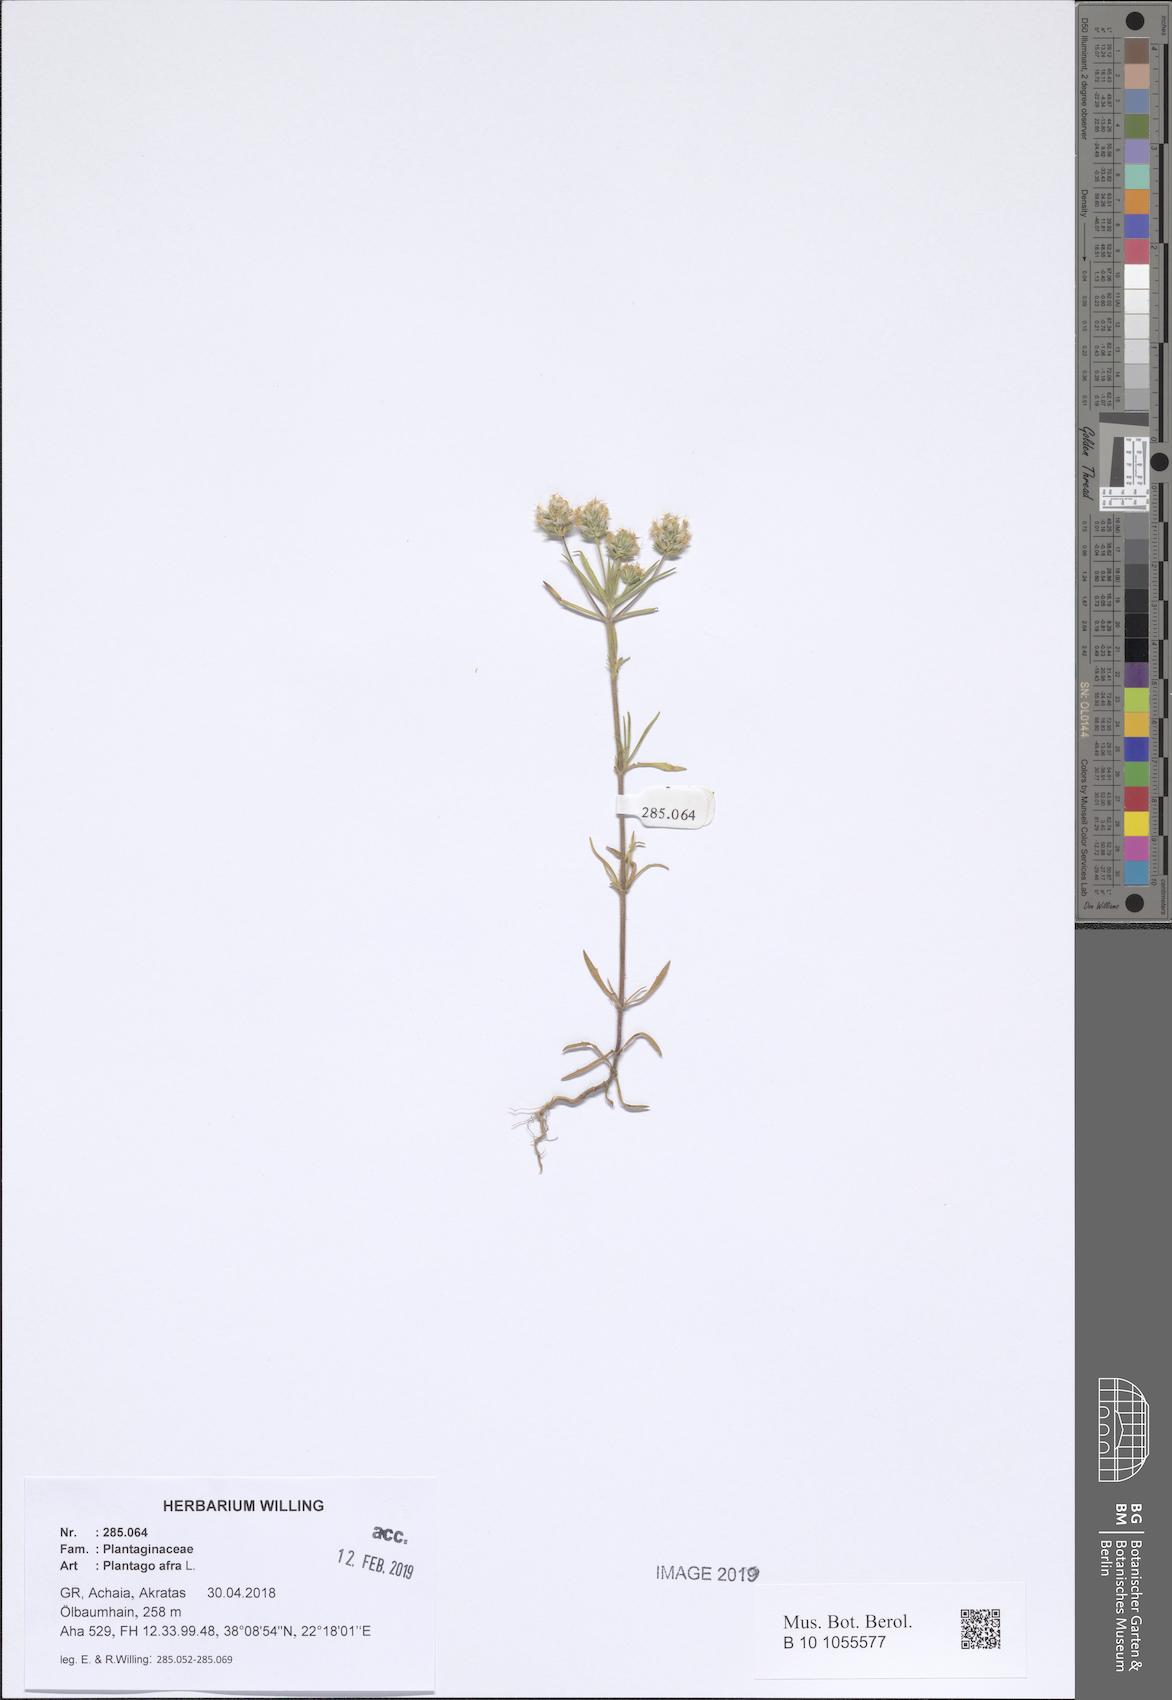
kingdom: Plantae
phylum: Tracheophyta
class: Magnoliopsida
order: Lamiales
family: Plantaginaceae
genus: Plantago
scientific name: Plantago afra
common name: Glandular plantain
